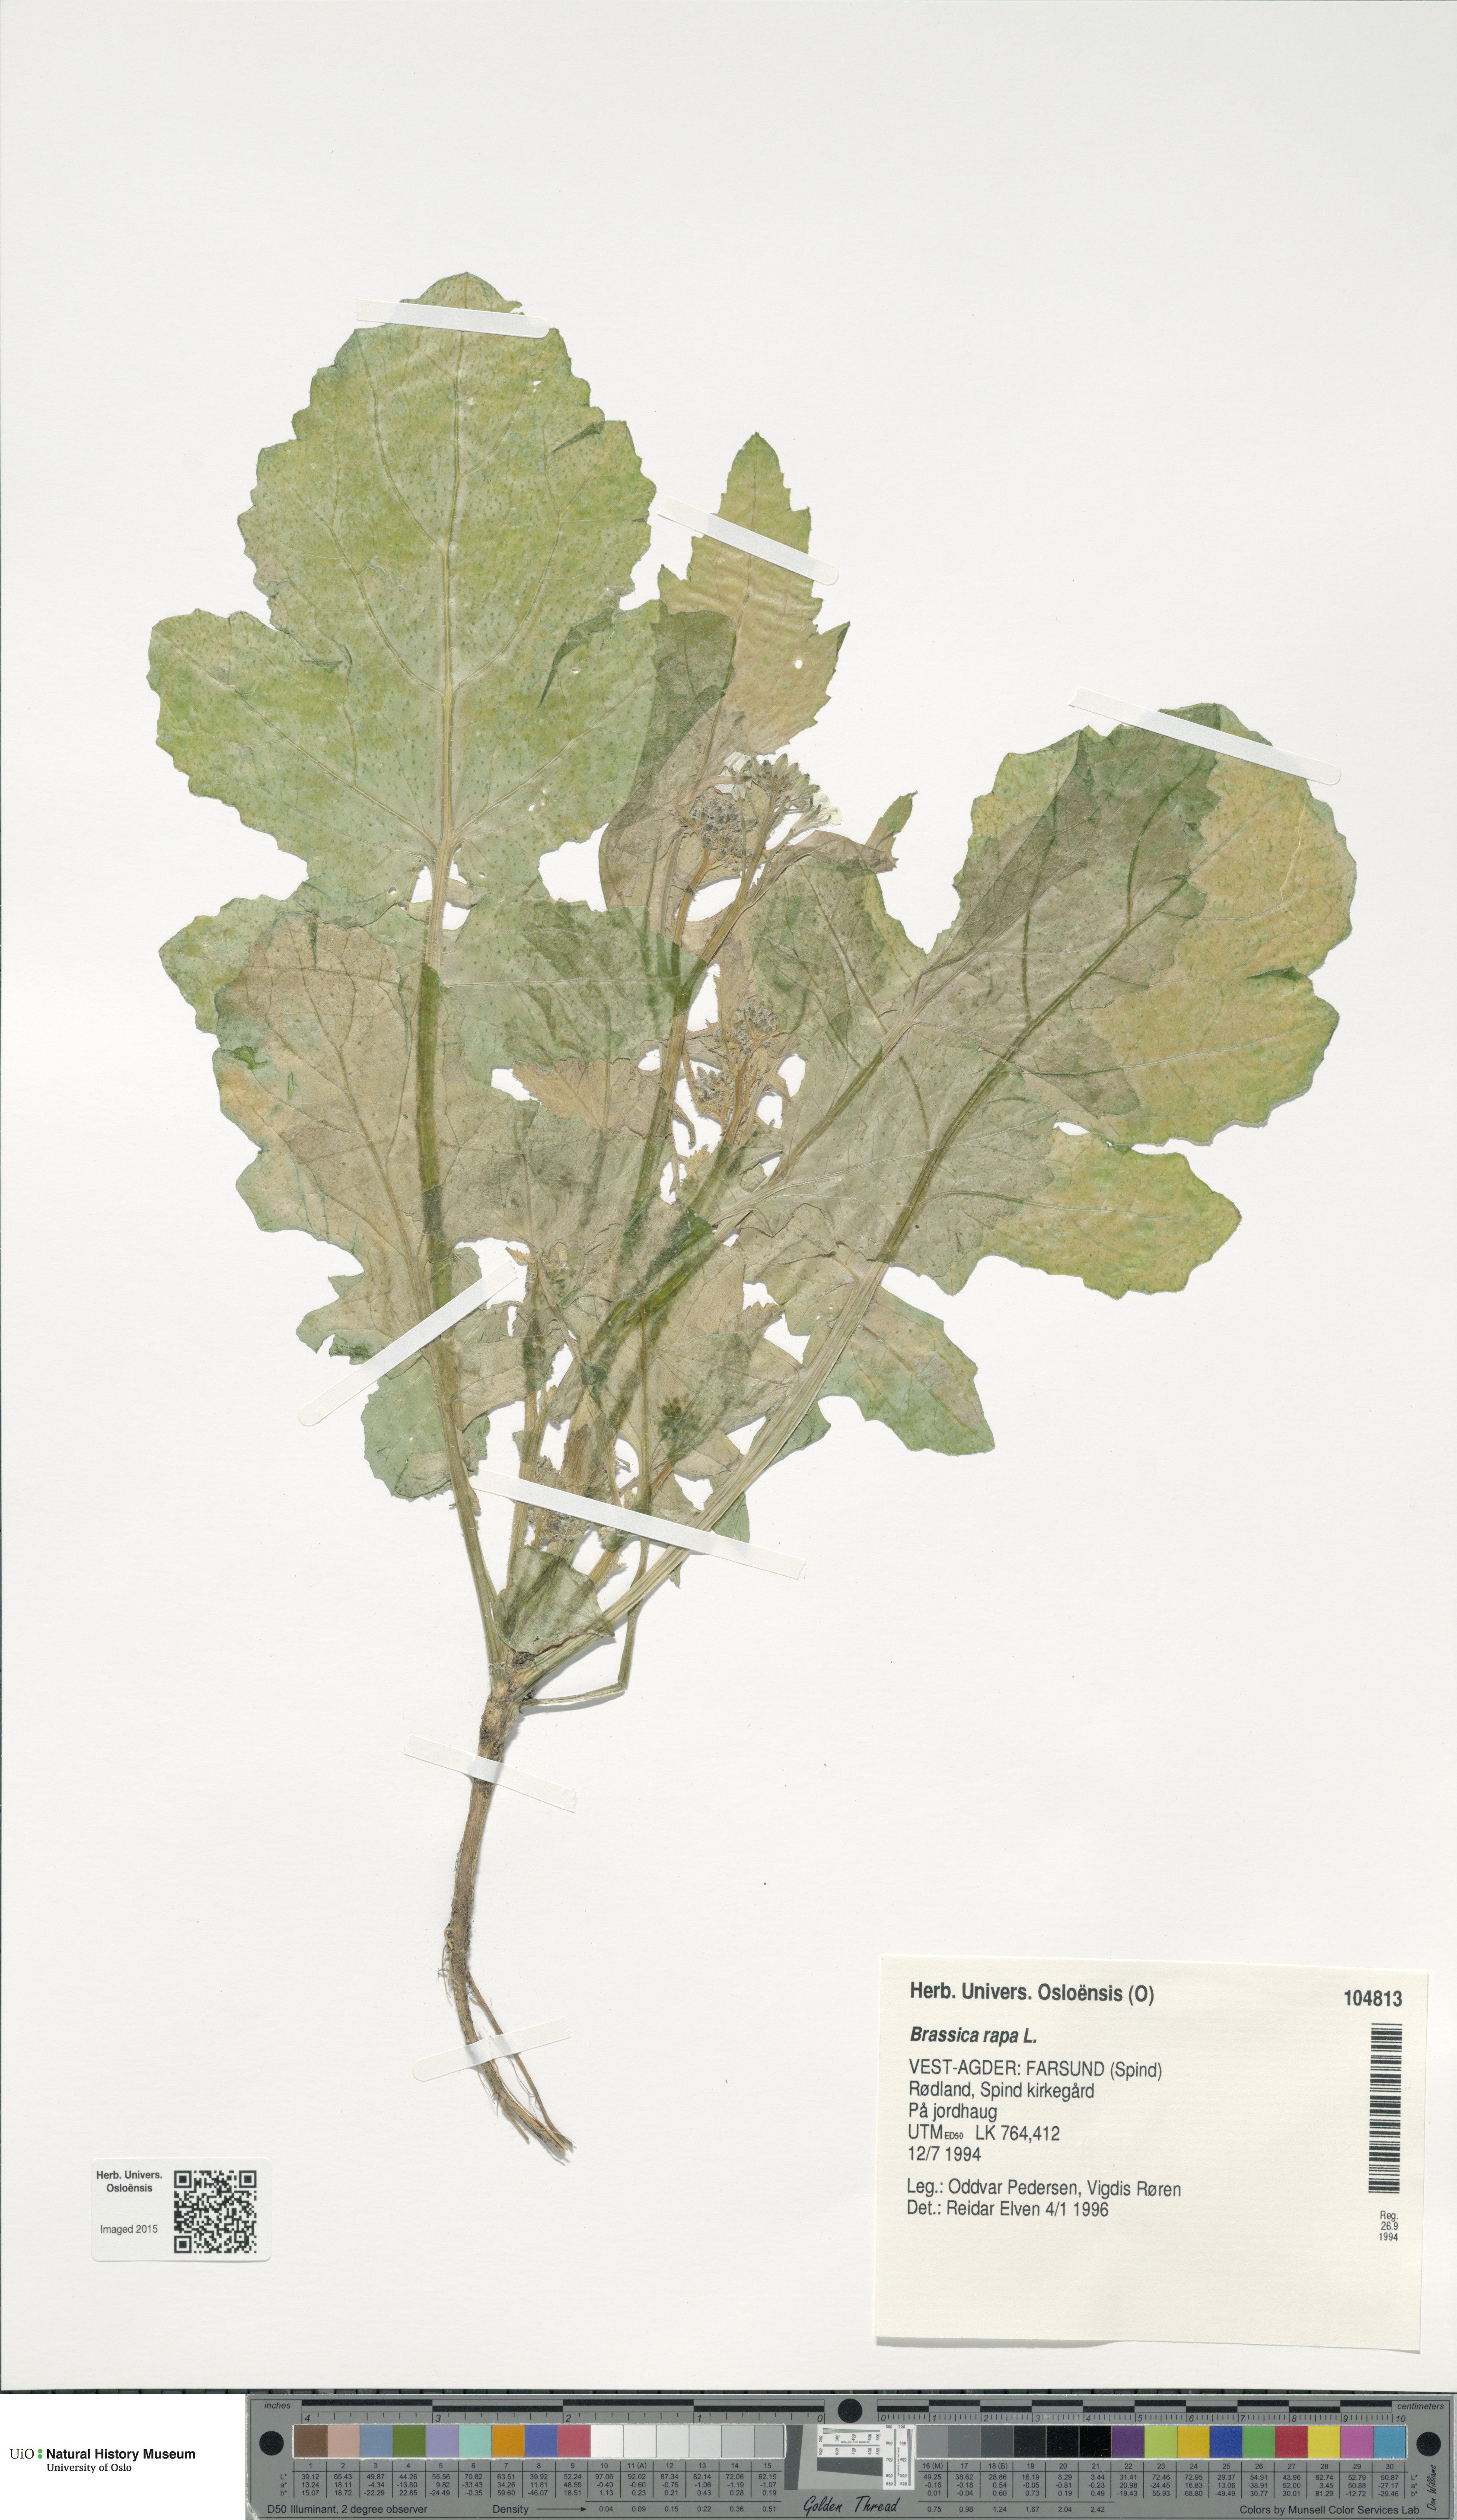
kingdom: Plantae
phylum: Tracheophyta
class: Magnoliopsida
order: Brassicales
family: Brassicaceae
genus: Brassica
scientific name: Brassica rapa
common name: Field mustard
